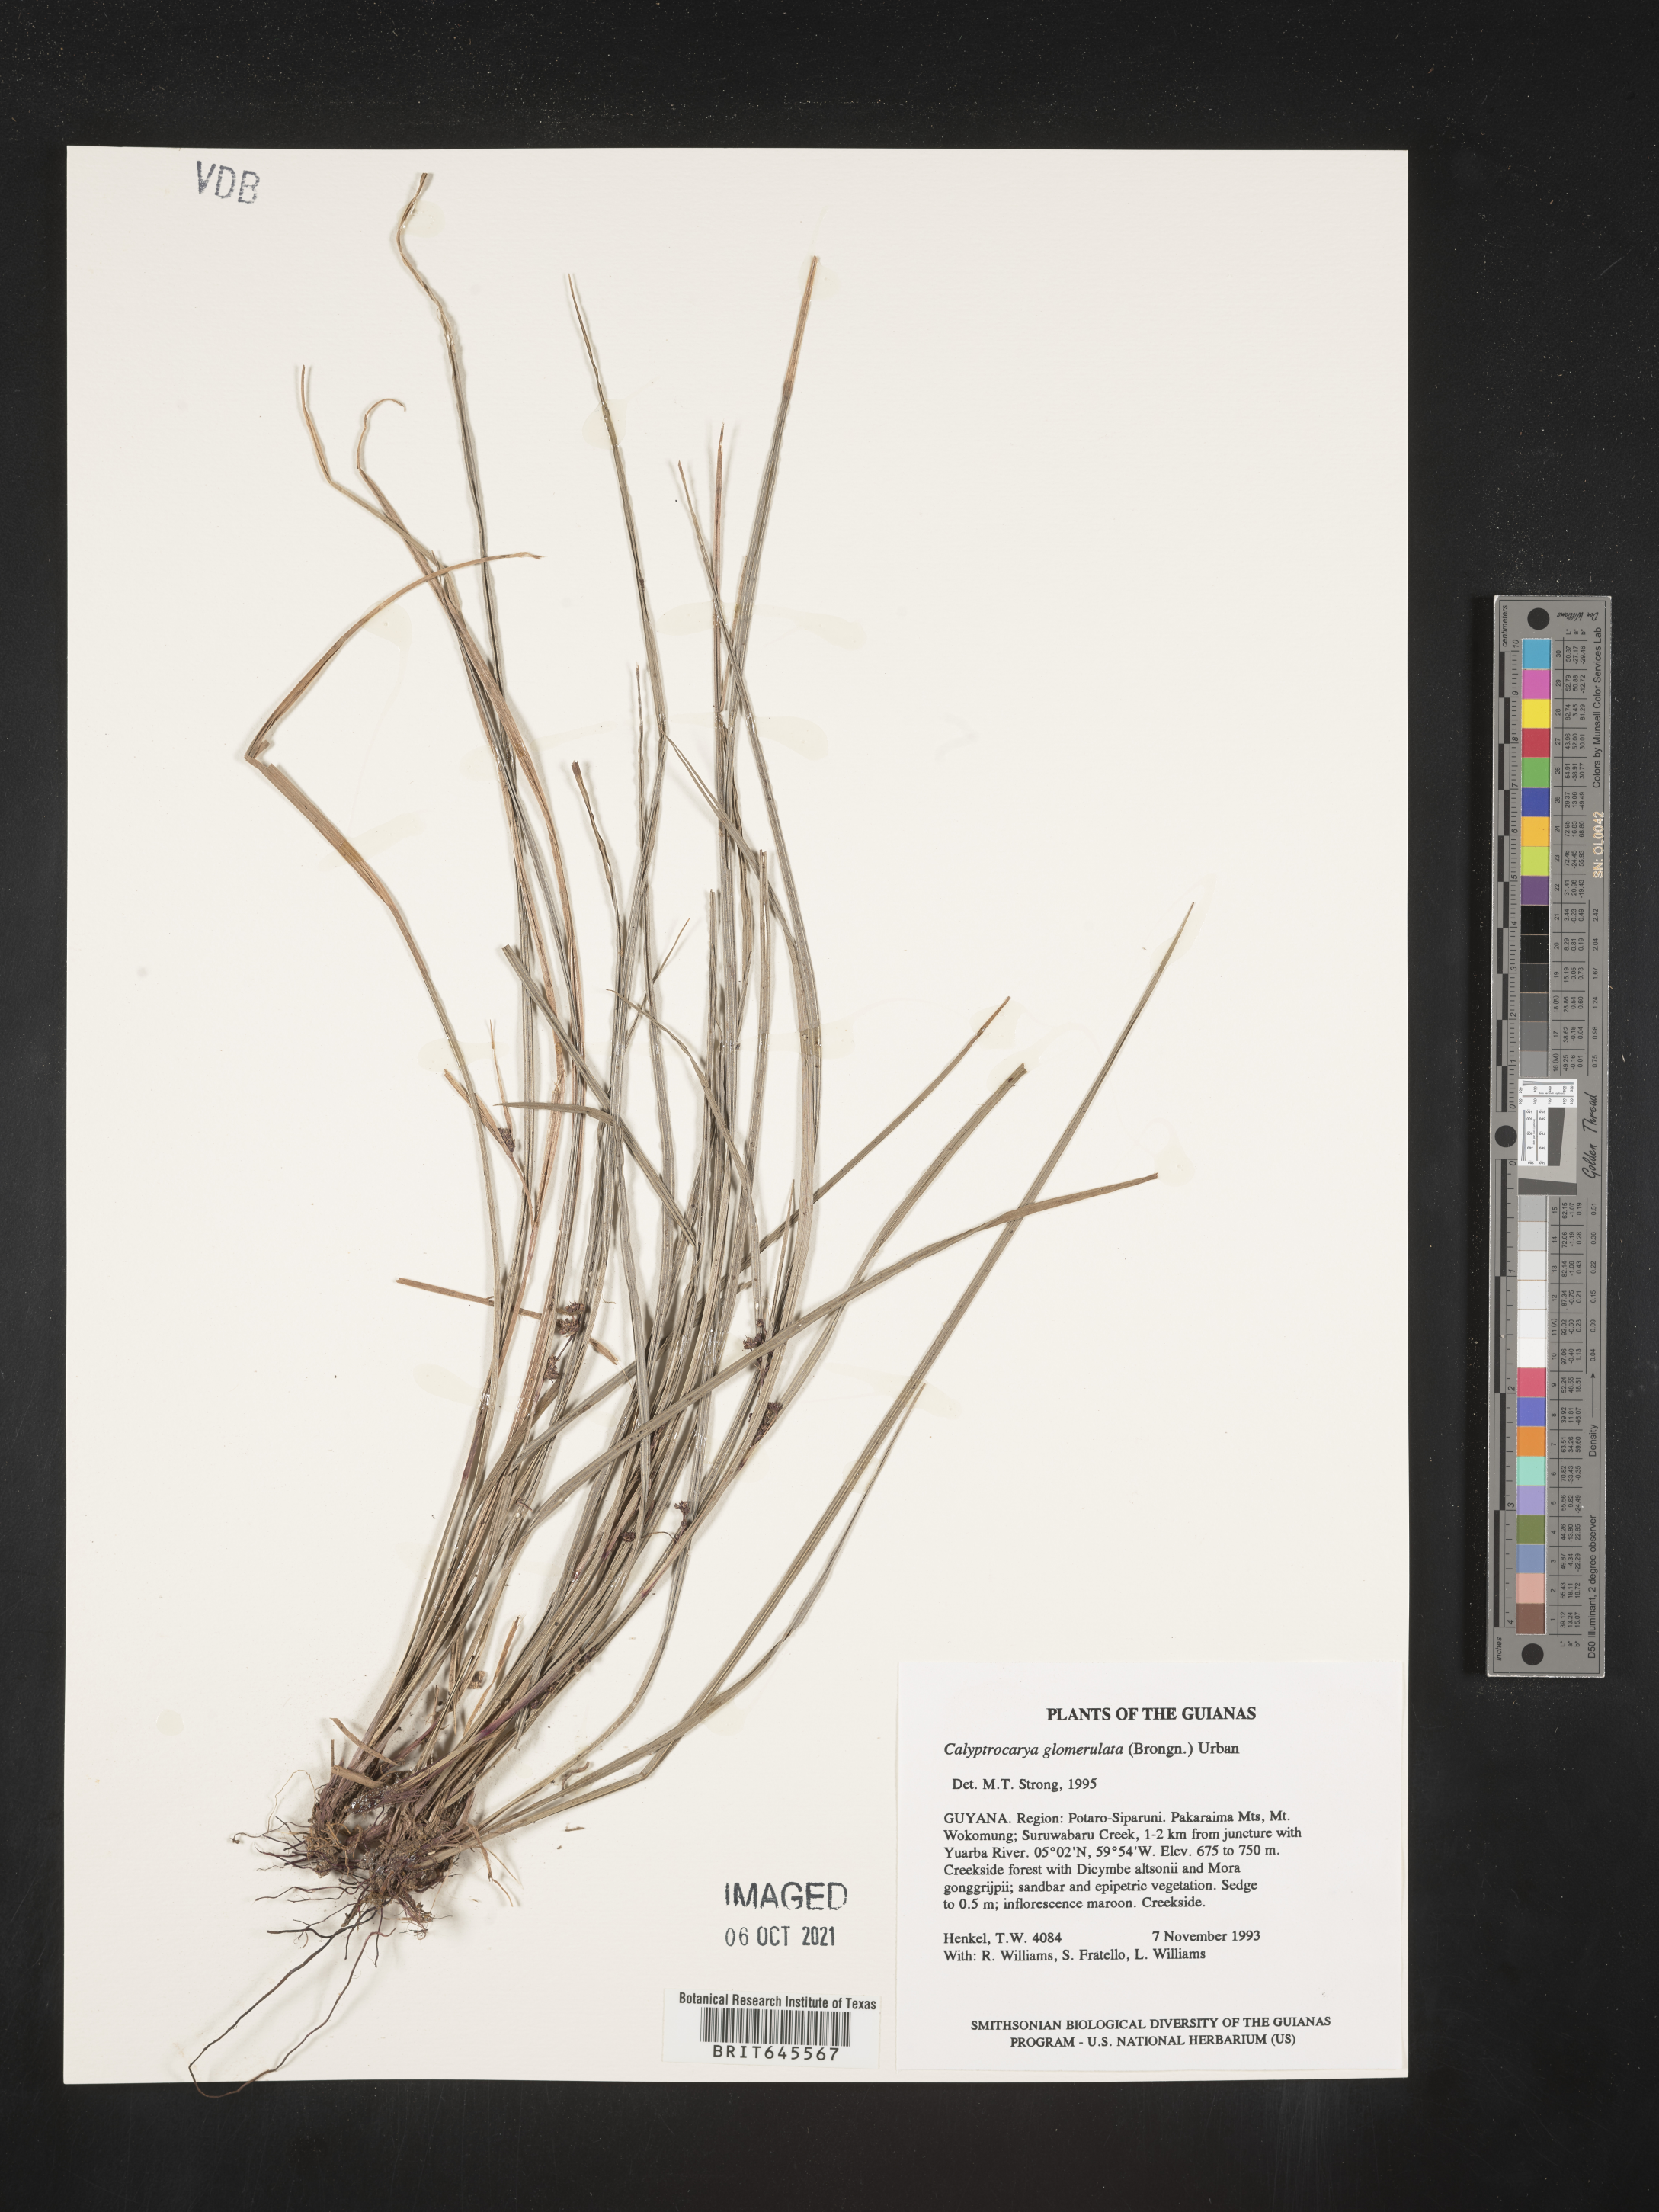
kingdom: Plantae
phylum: Tracheophyta
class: Liliopsida
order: Poales
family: Cyperaceae
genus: Calyptrocarya
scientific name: Calyptrocarya glomerulata
